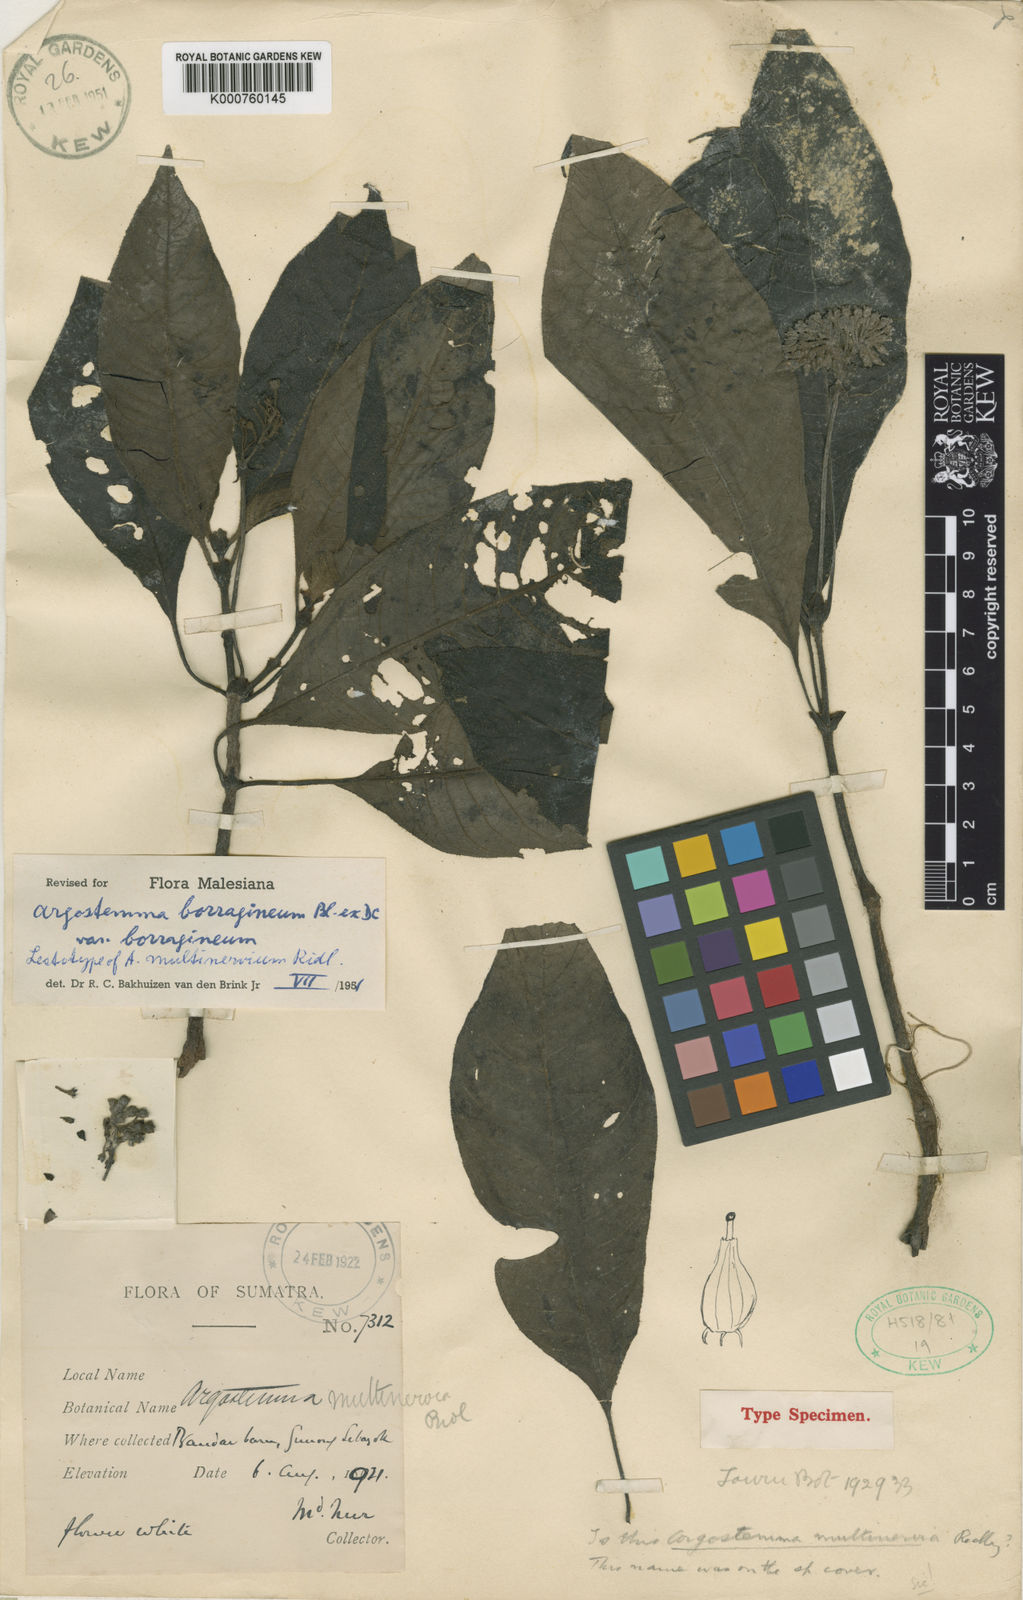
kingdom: Plantae
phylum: Tracheophyta
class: Magnoliopsida
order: Gentianales
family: Rubiaceae
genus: Argostemma
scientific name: Argostemma borragineum
